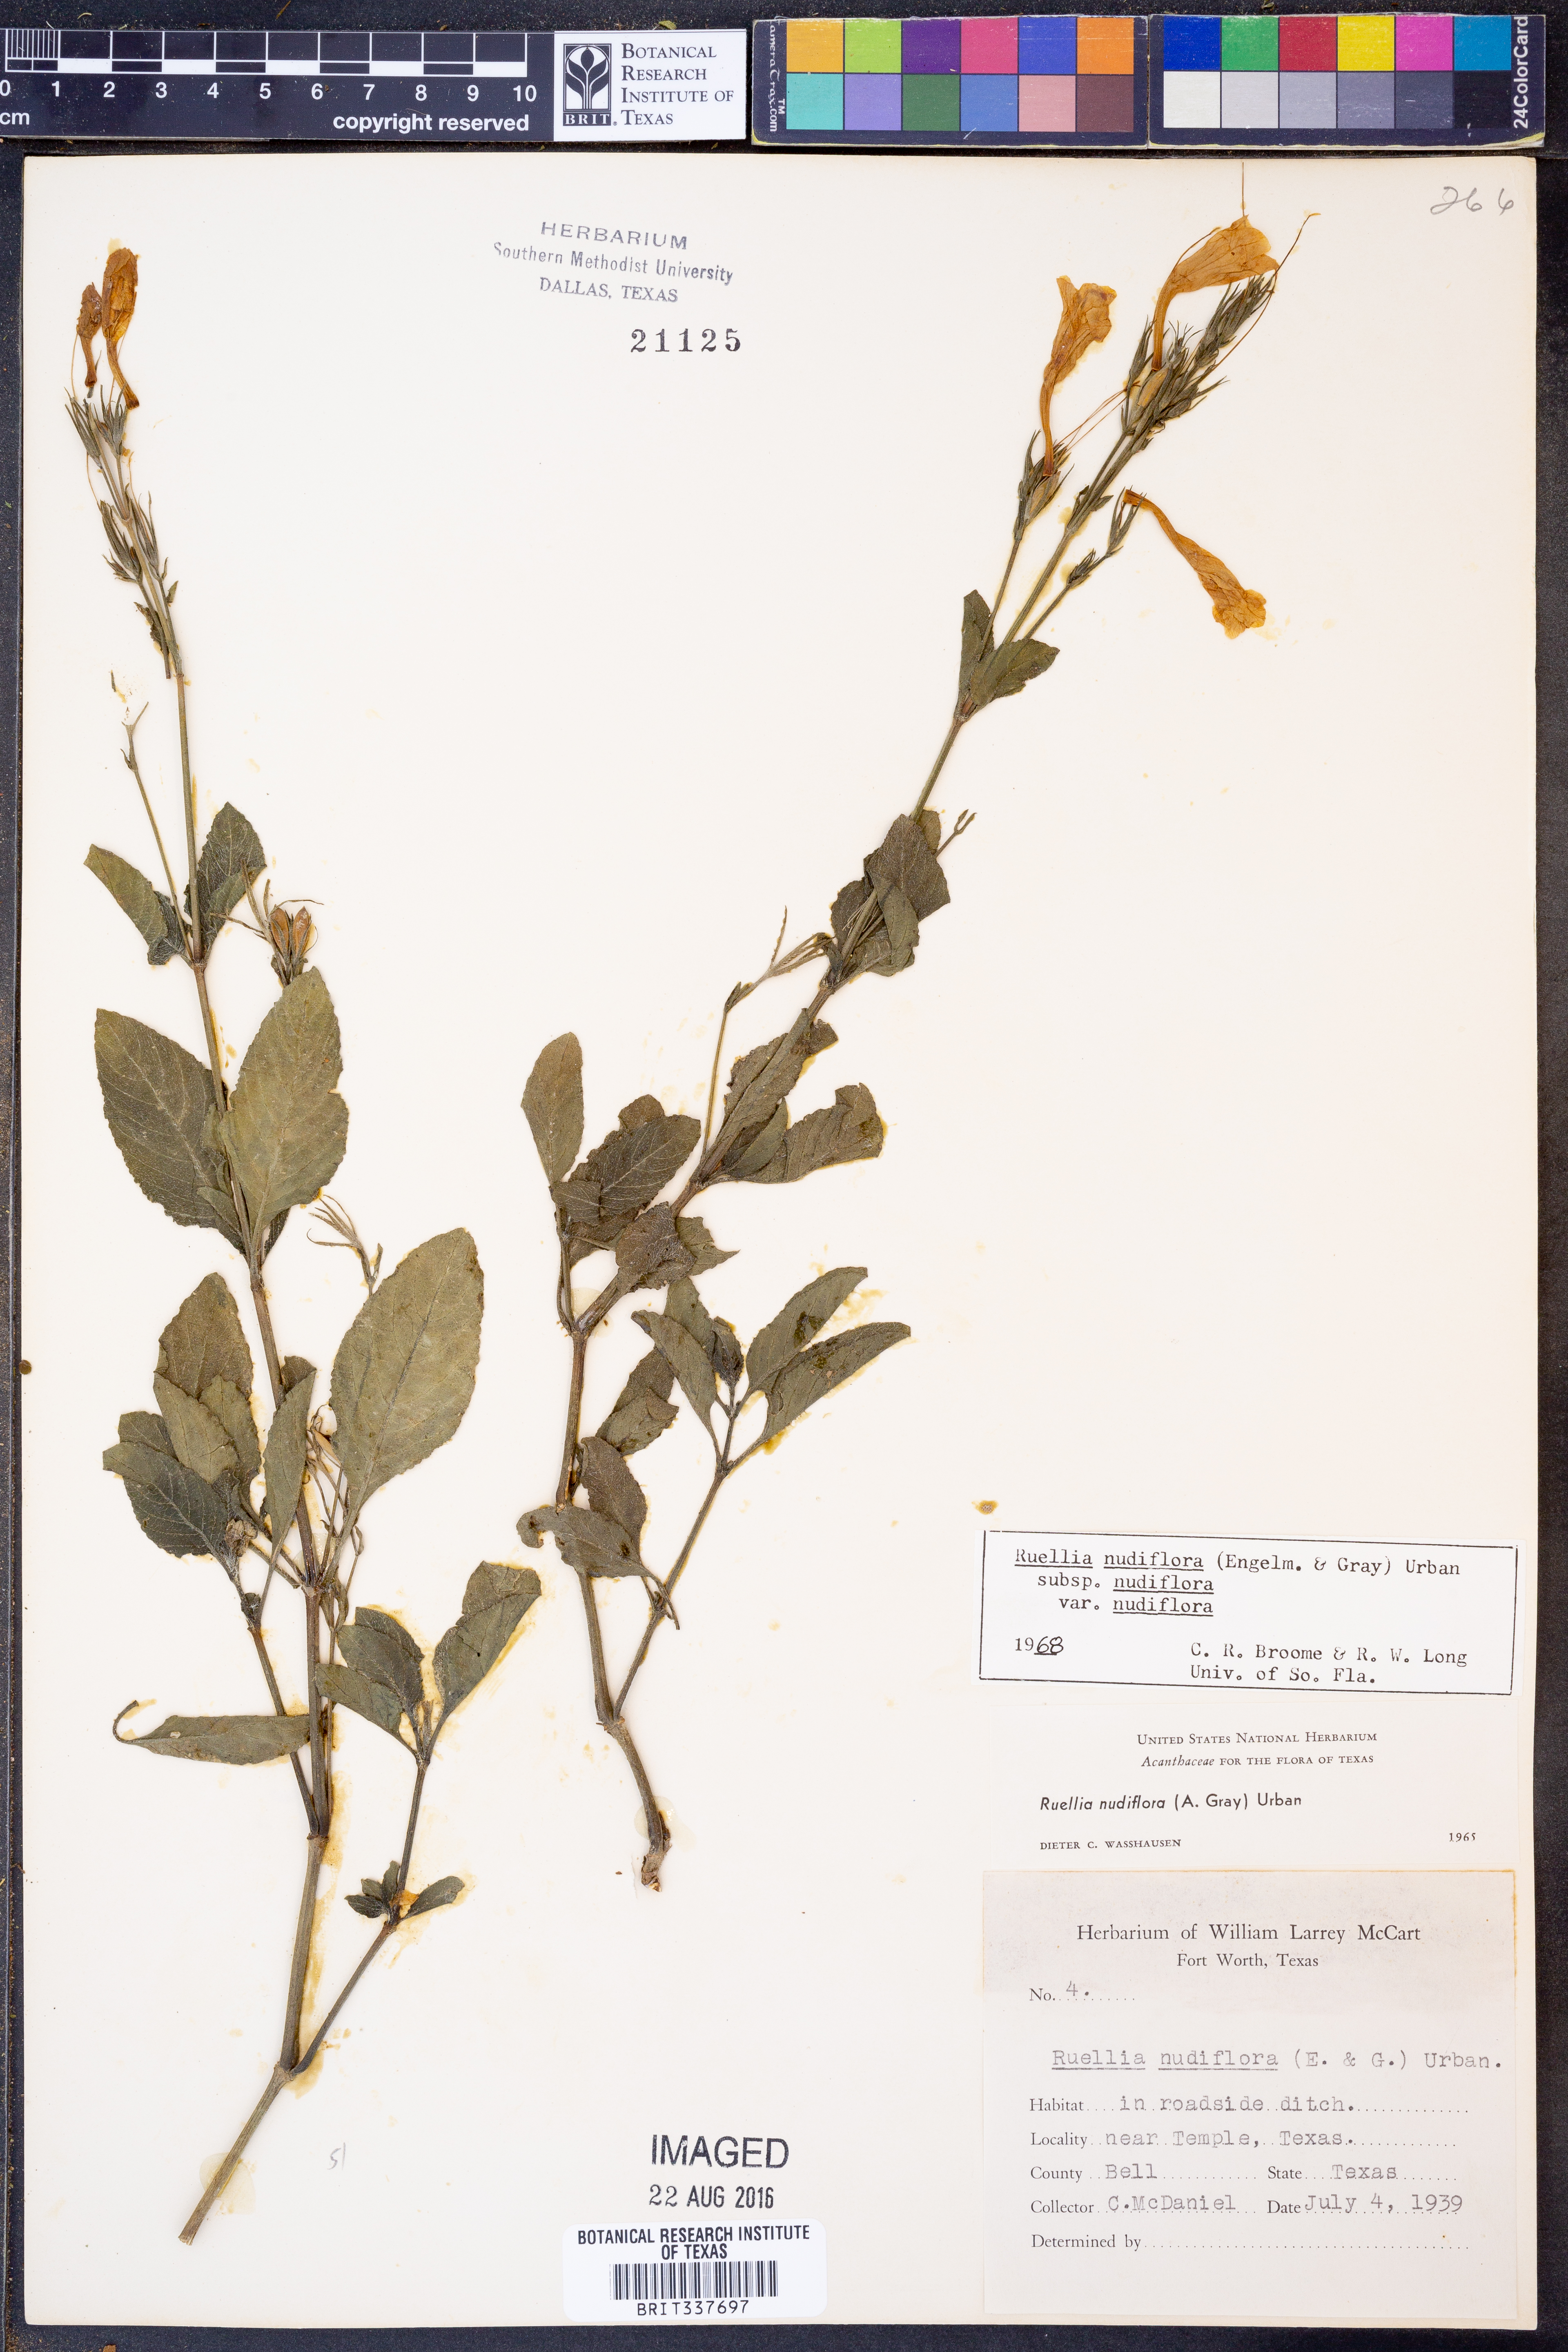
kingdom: Plantae
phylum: Tracheophyta
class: Magnoliopsida
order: Lamiales
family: Acanthaceae
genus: Ruellia
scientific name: Ruellia ciliatiflora
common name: Hairyflower wild petunia
